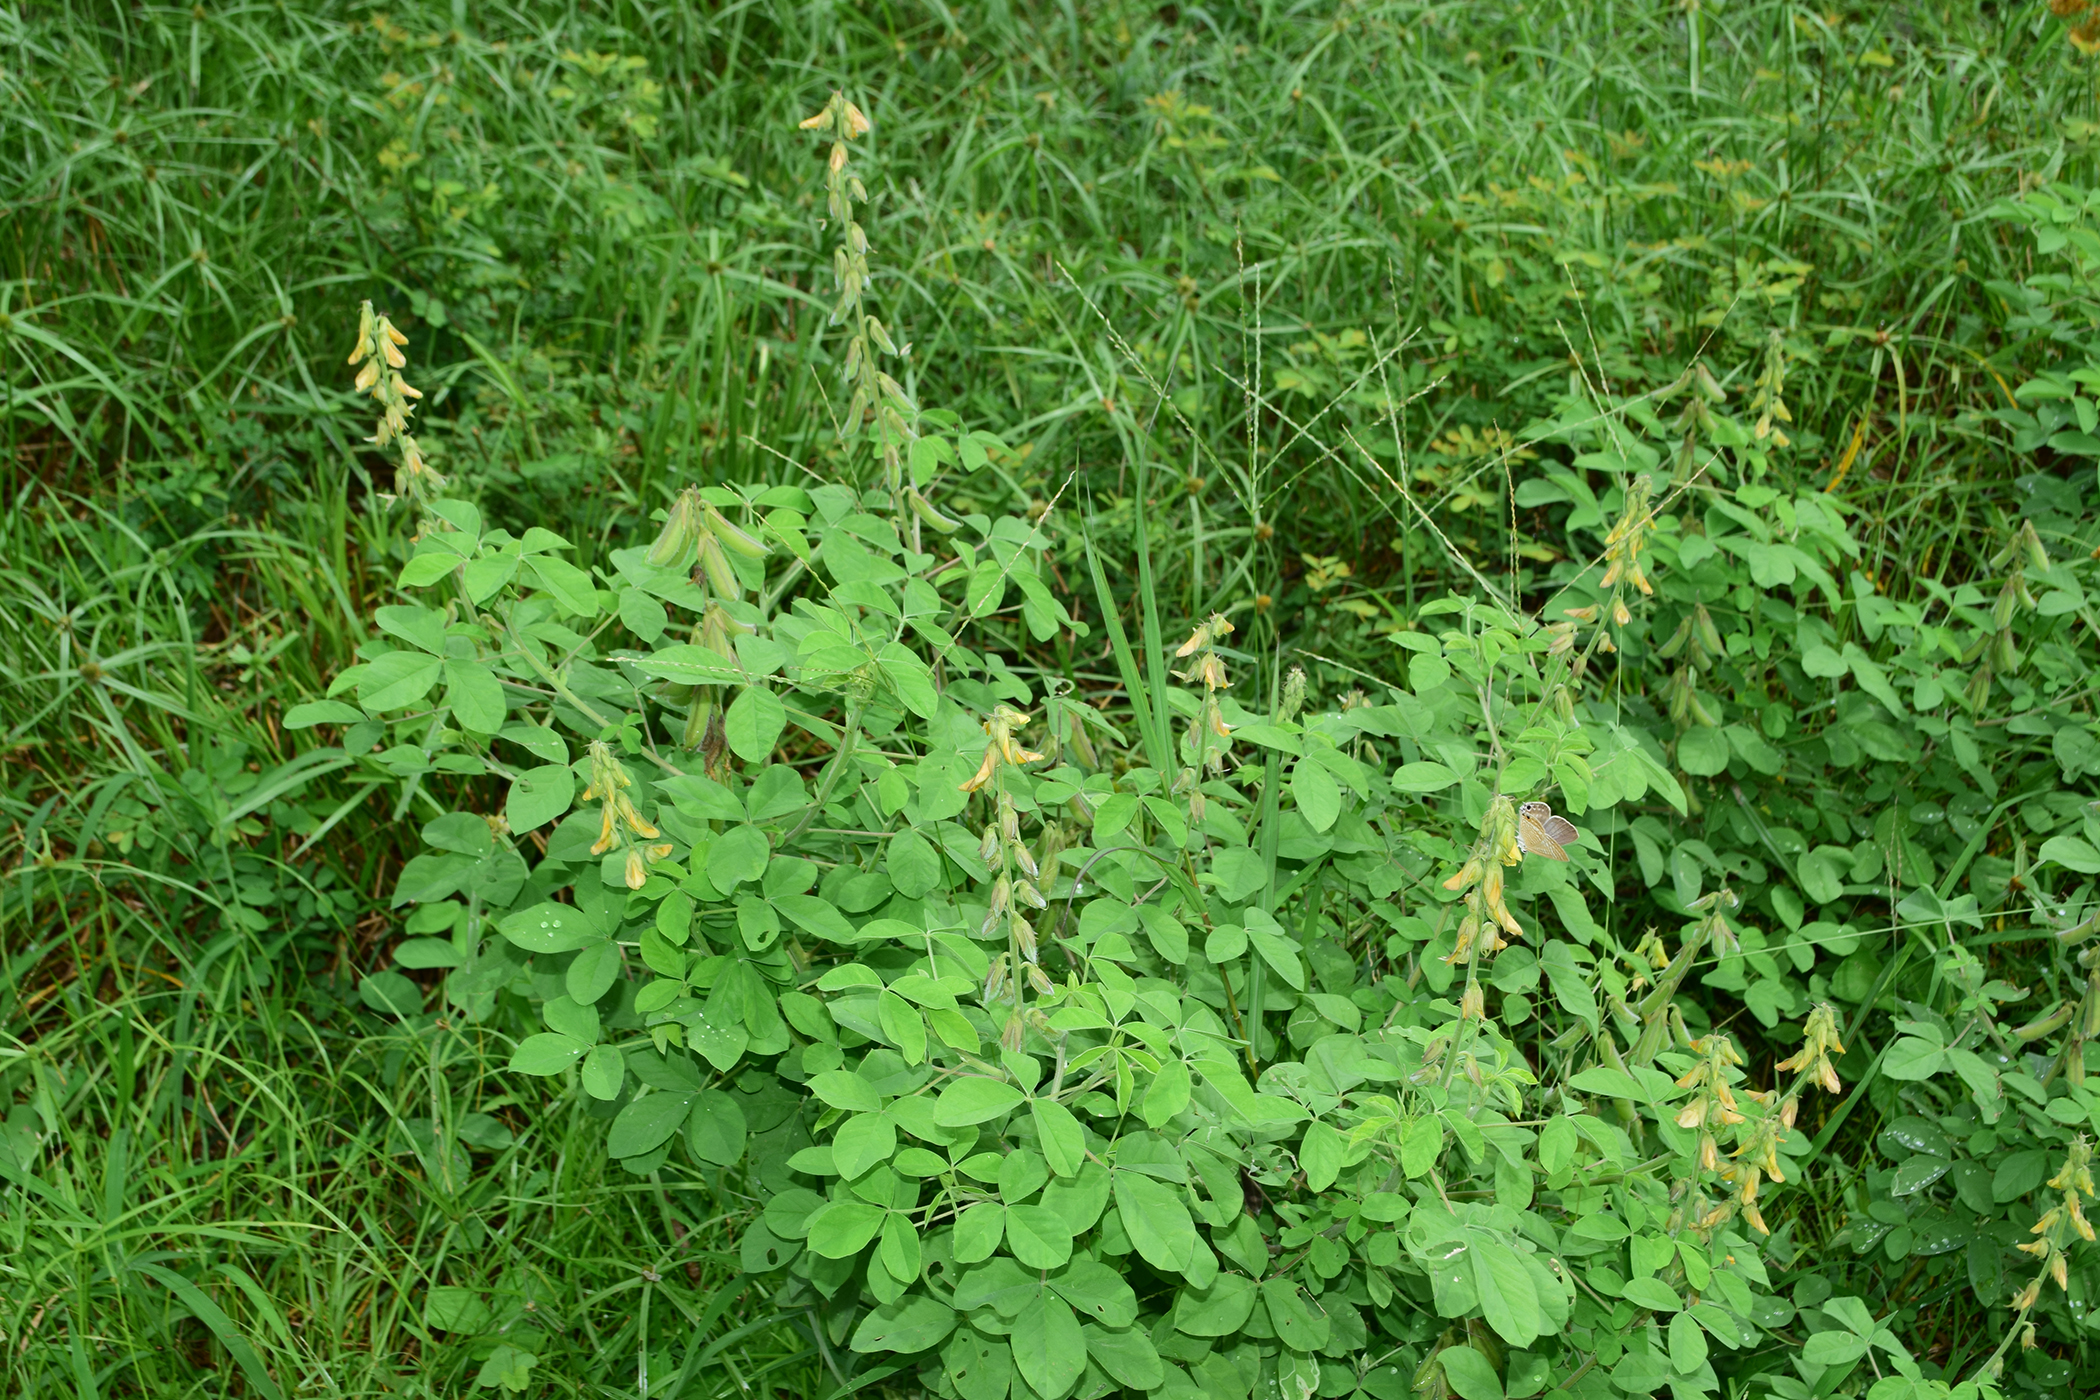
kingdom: Plantae
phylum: Tracheophyta
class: Magnoliopsida
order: Fabales
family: Fabaceae
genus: Crotalaria
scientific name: Crotalaria incana
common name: Shakeshake
